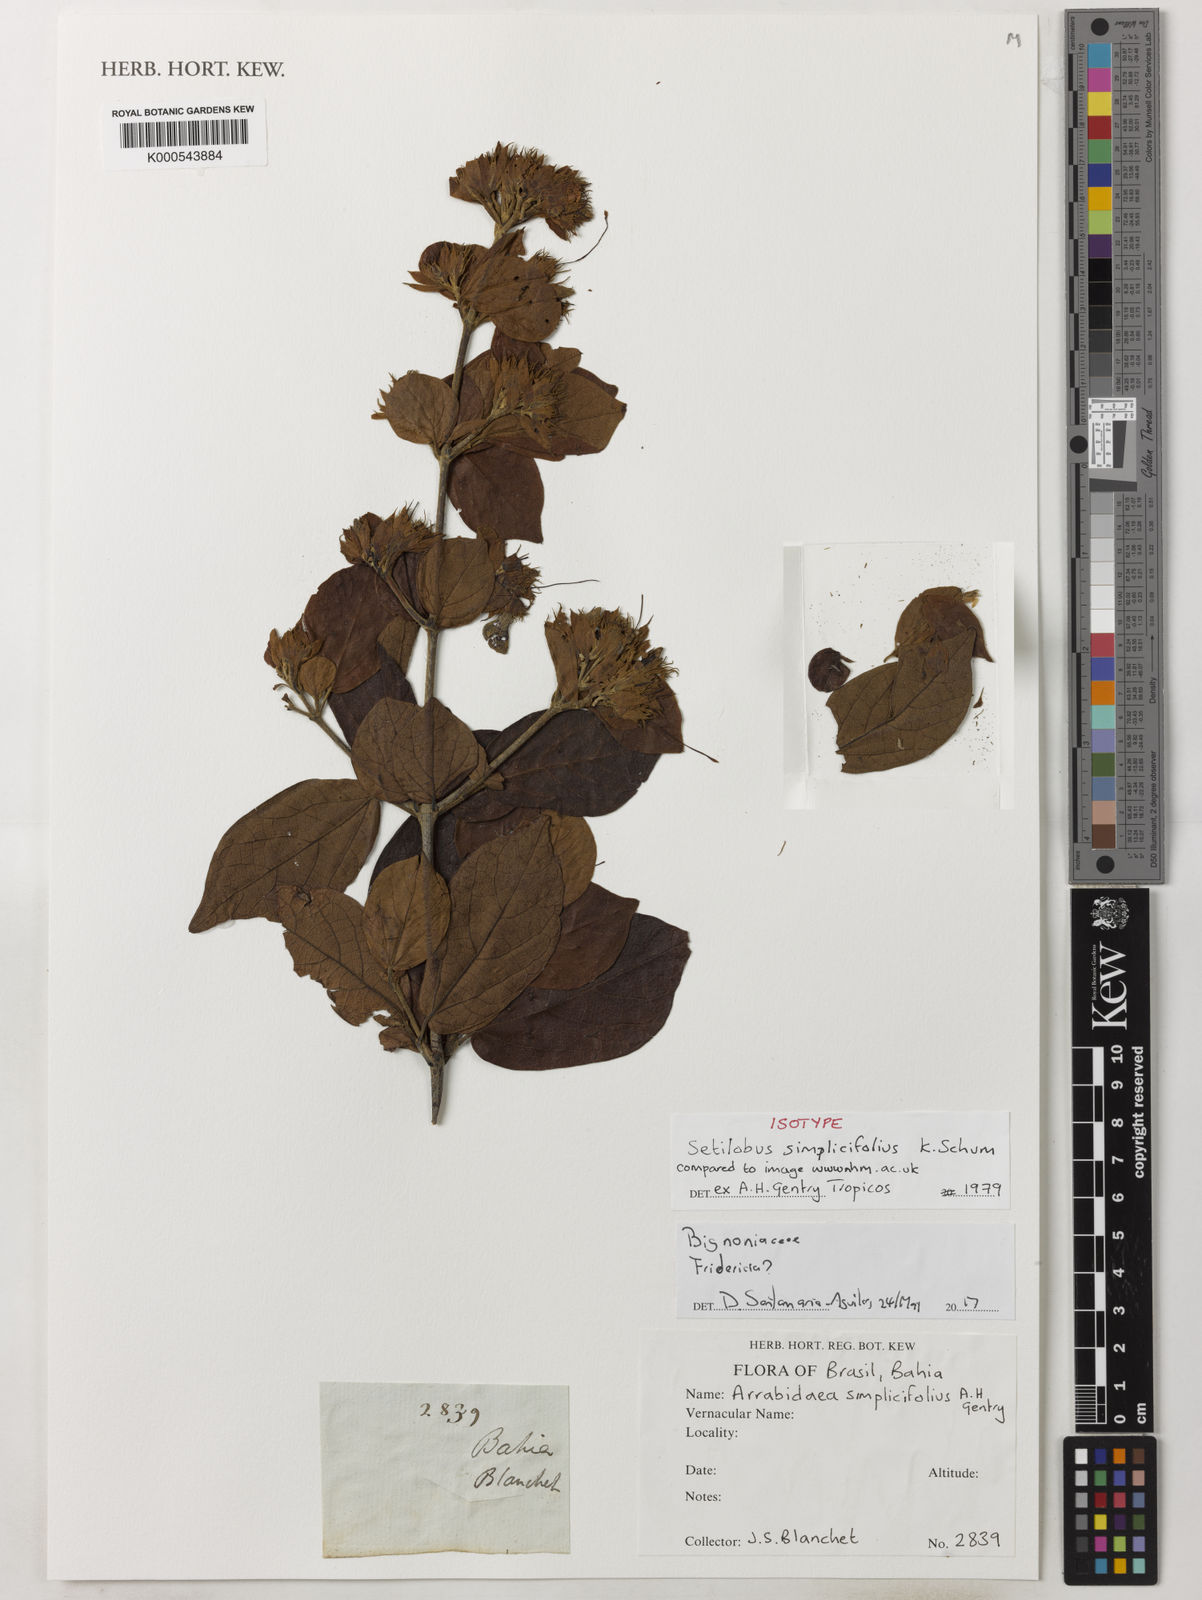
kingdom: Plantae
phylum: Tracheophyta
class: Magnoliopsida
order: Rosales
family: Rhamnaceae
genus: Arrabidaea
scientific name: Arrabidaea
